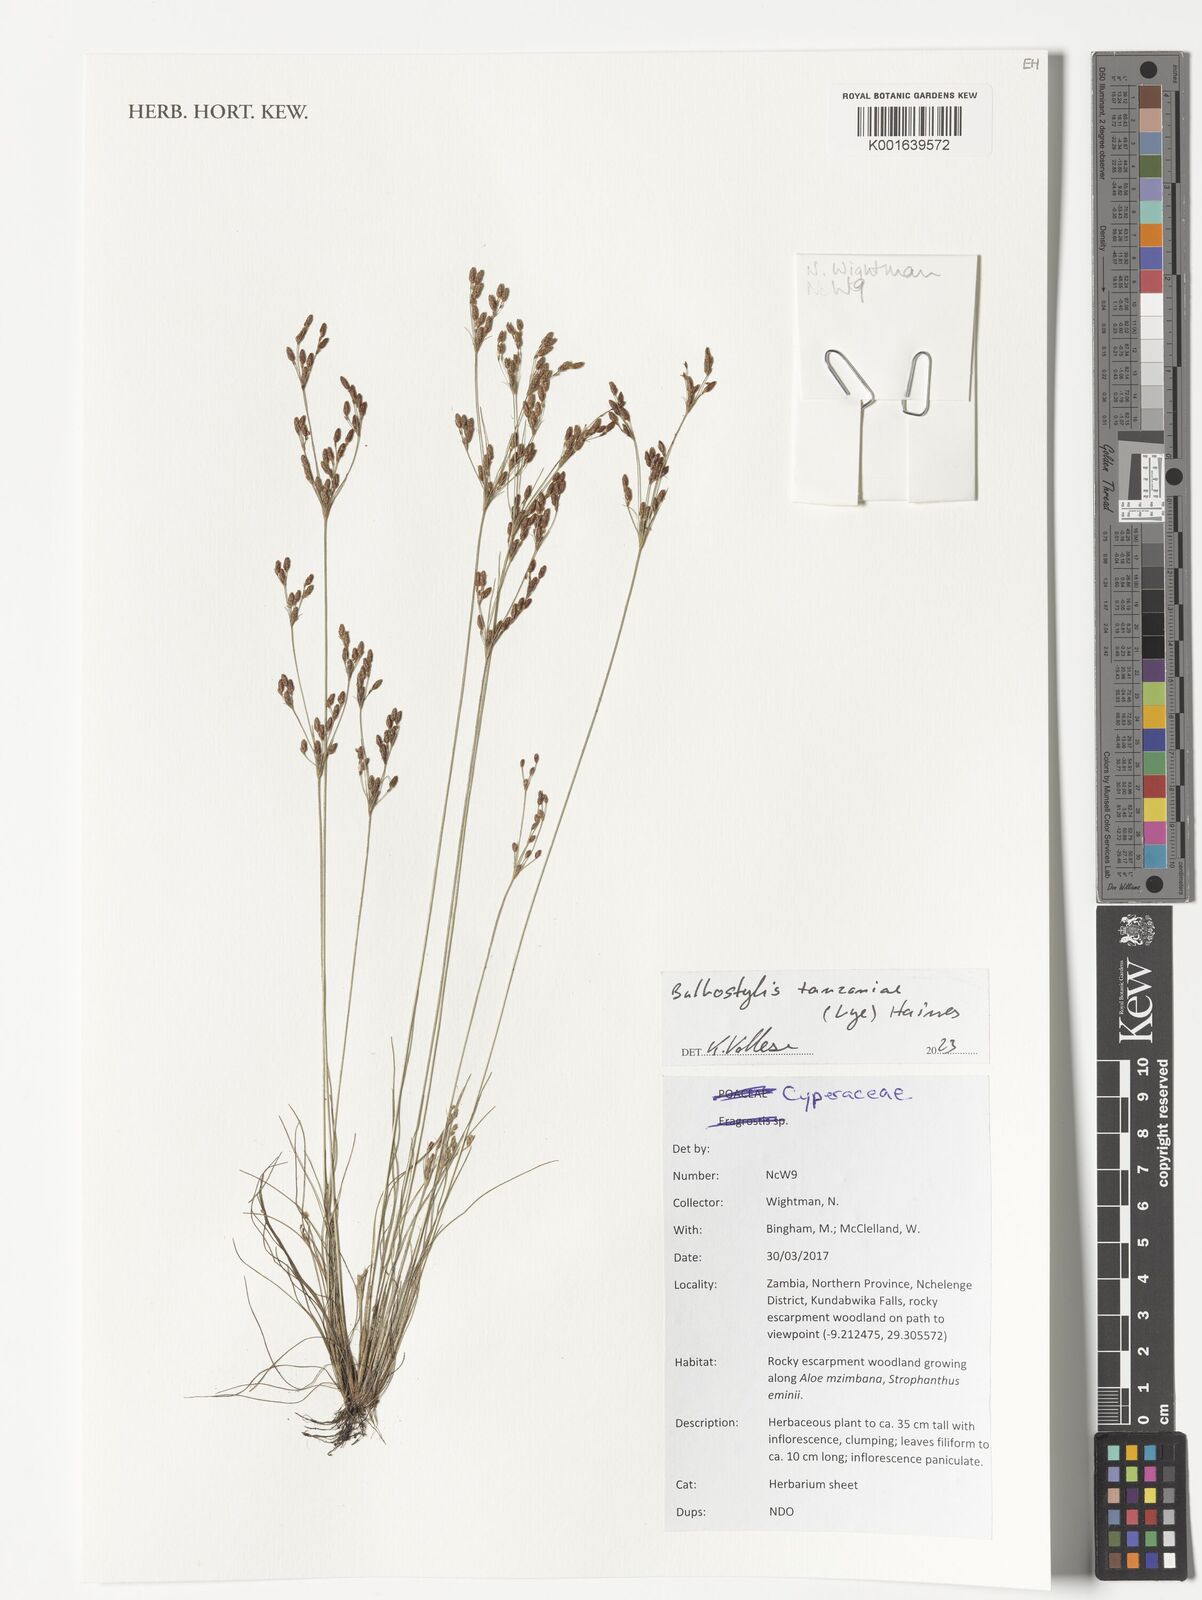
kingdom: Plantae
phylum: Tracheophyta
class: Liliopsida
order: Poales
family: Cyperaceae
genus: Bulbostylis
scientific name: Bulbostylis tanzaniae
